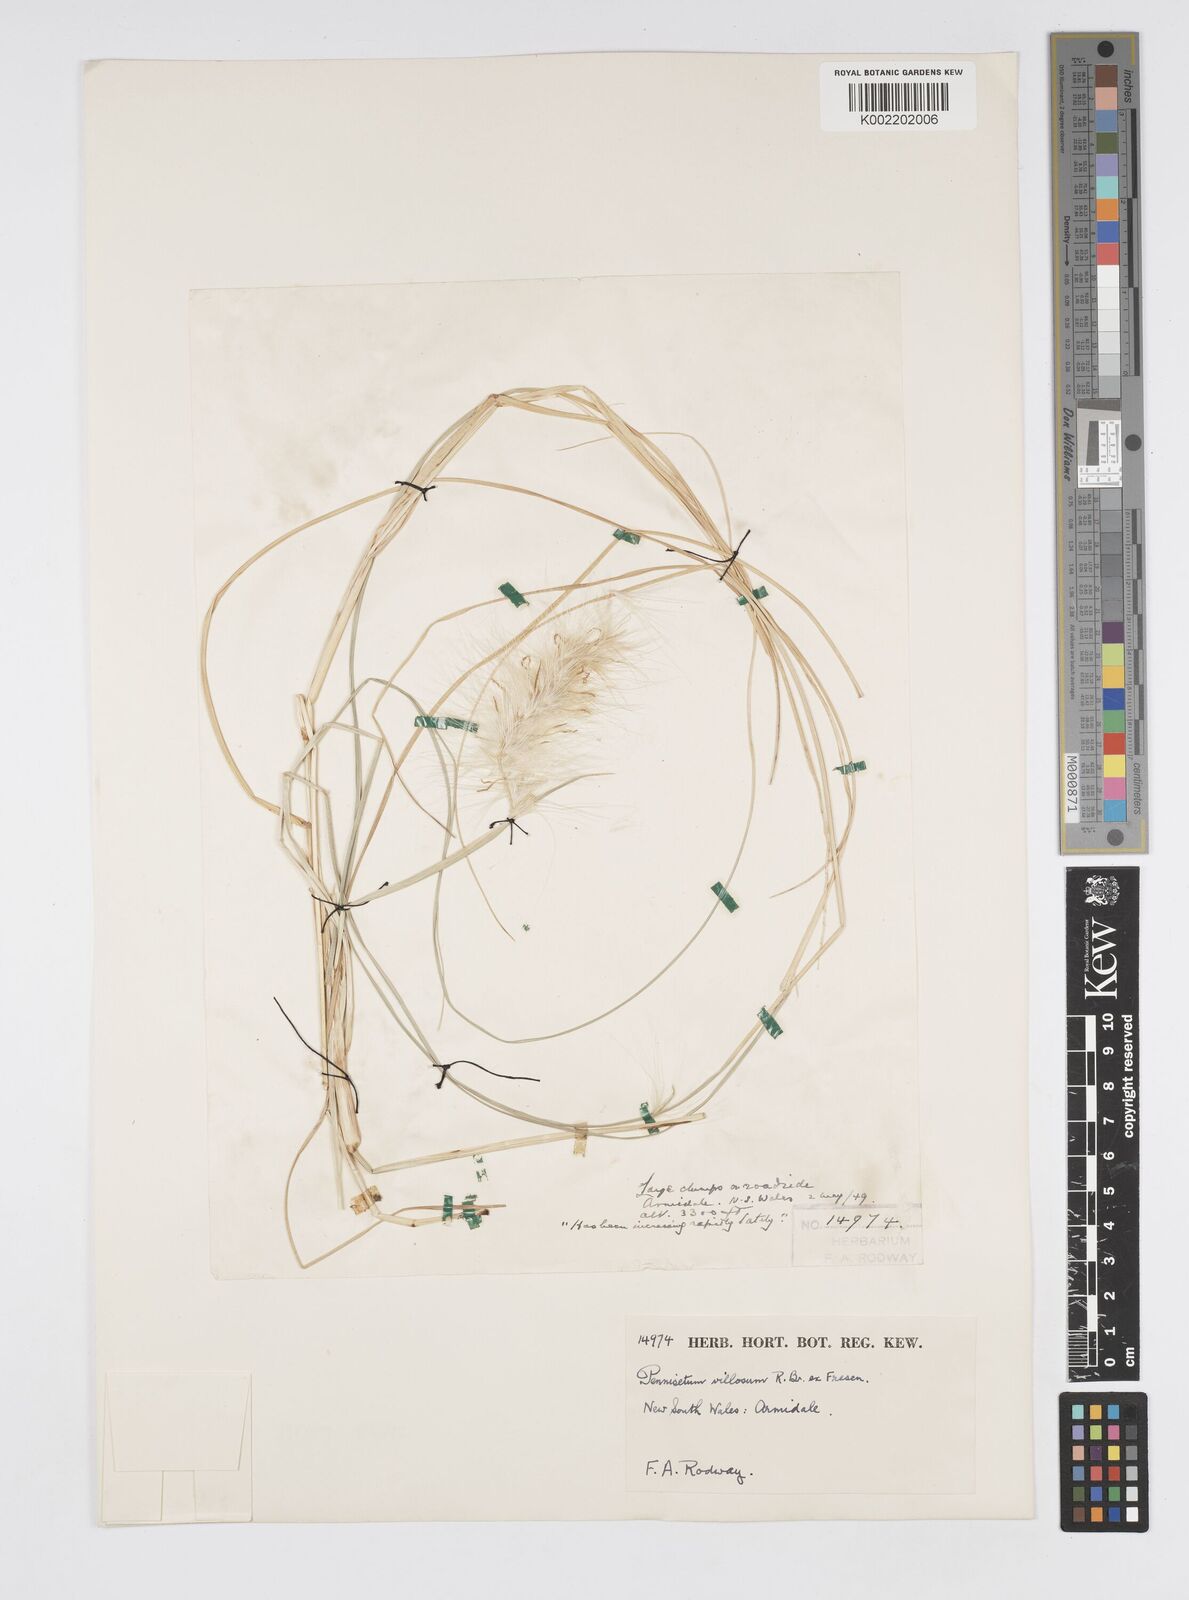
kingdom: Plantae
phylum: Tracheophyta
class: Liliopsida
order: Poales
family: Poaceae
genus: Cenchrus
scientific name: Cenchrus longisetus
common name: Feathertop
